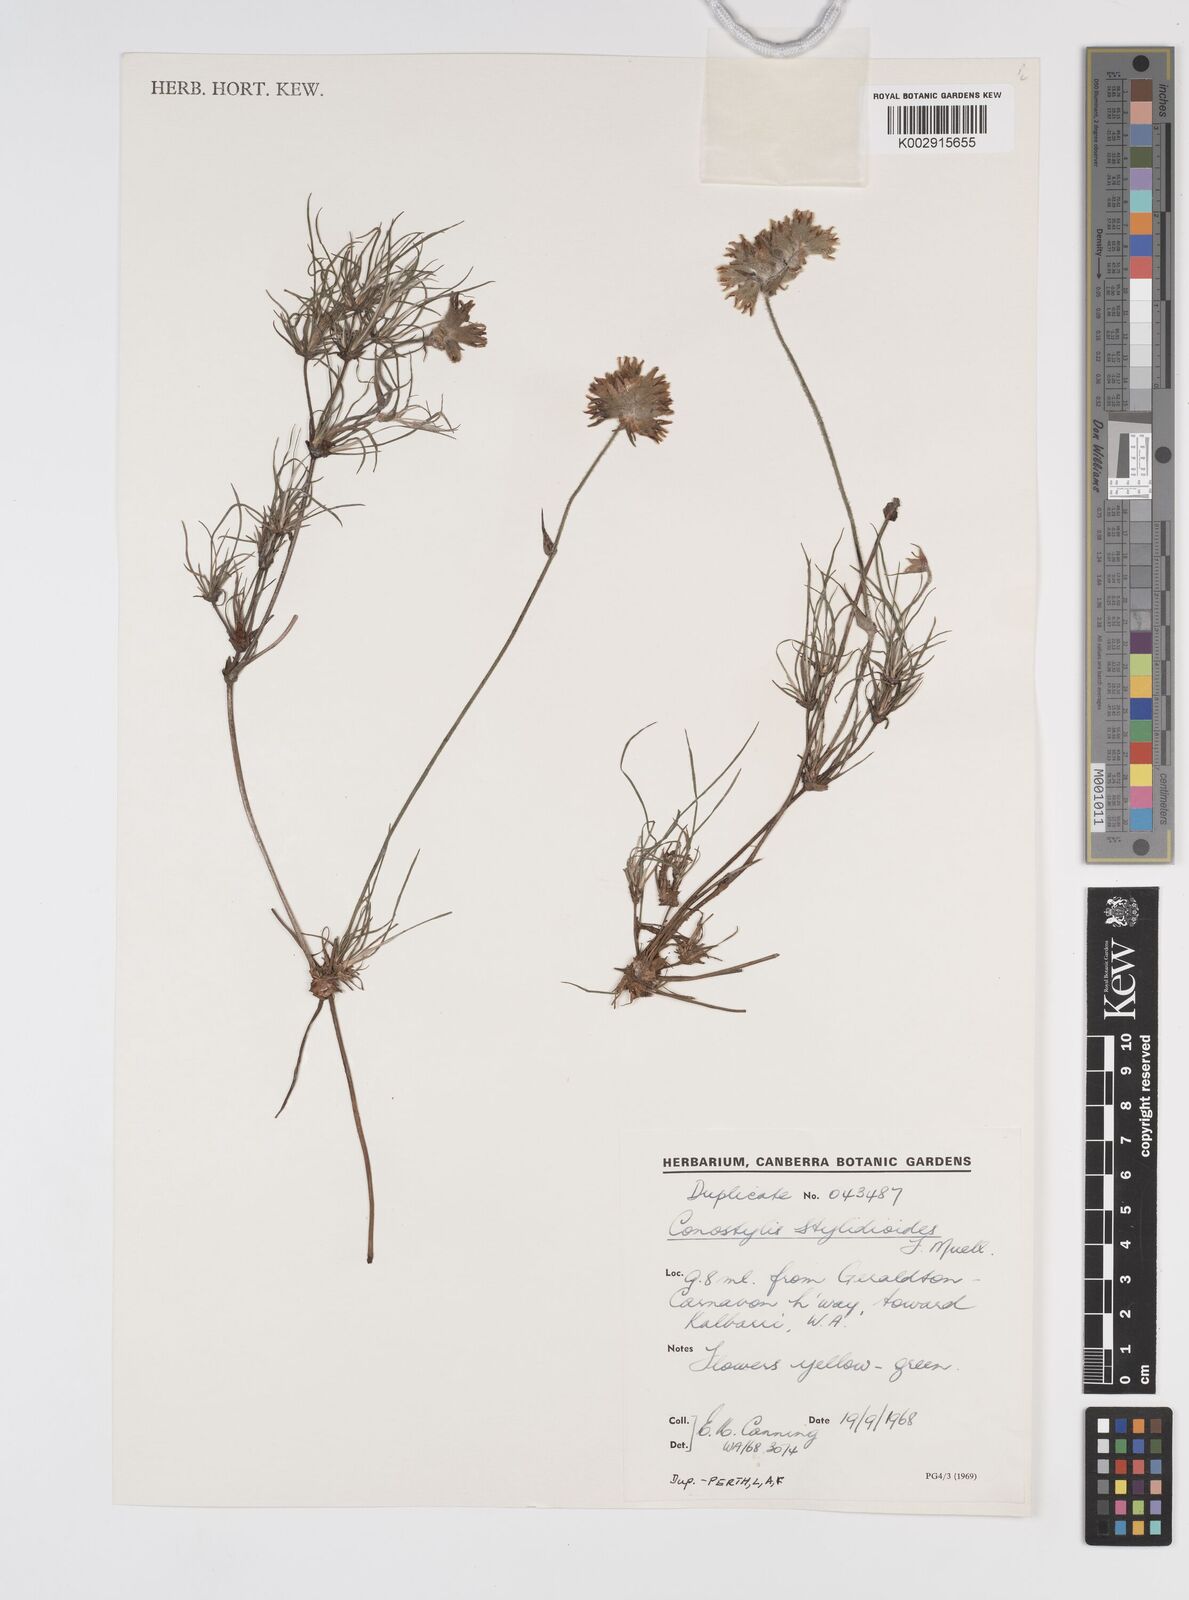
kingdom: Plantae
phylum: Tracheophyta
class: Liliopsida
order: Commelinales
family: Haemodoraceae
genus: Conostylis
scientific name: Conostylis stylidioides
